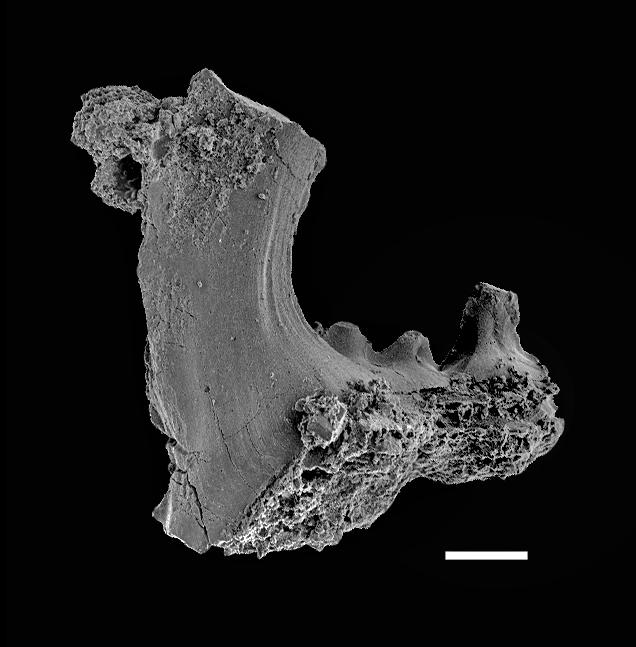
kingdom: Animalia
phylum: Chordata
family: Distomodontidae
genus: Distomodus
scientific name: Distomodus
